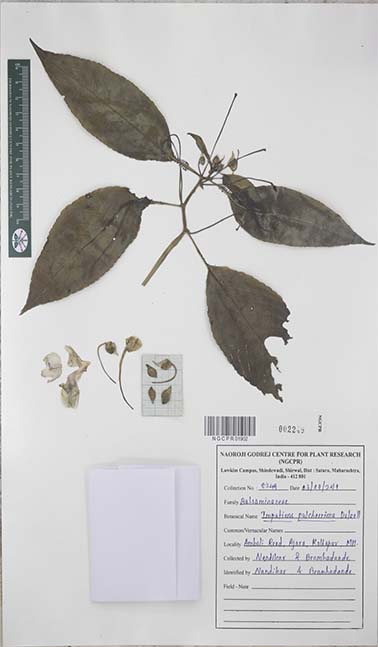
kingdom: Plantae
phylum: Tracheophyta
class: Magnoliopsida
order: Ericales
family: Balsaminaceae
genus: Impatiens
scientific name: Impatiens pulcherrima
